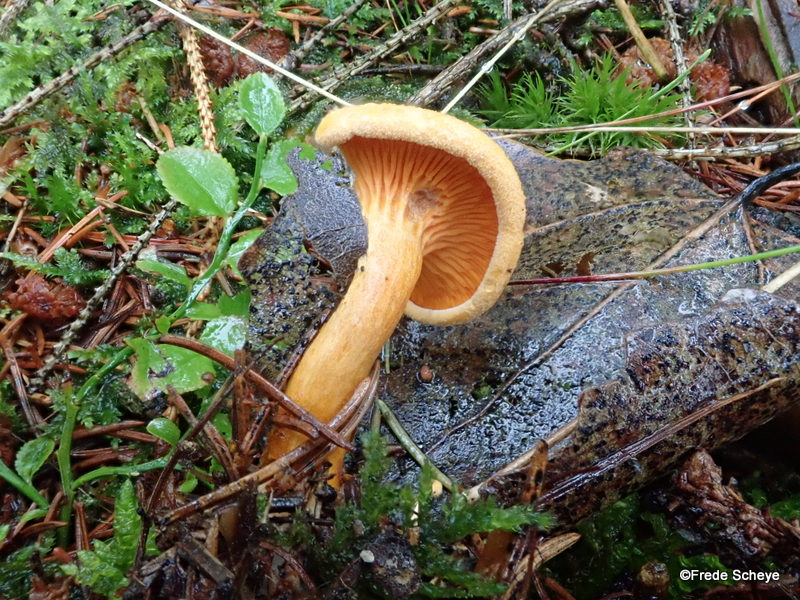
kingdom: Fungi
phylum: Basidiomycota
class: Agaricomycetes
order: Boletales
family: Hygrophoropsidaceae
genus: Hygrophoropsis
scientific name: Hygrophoropsis aurantiaca
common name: almindelig orangekantarel
